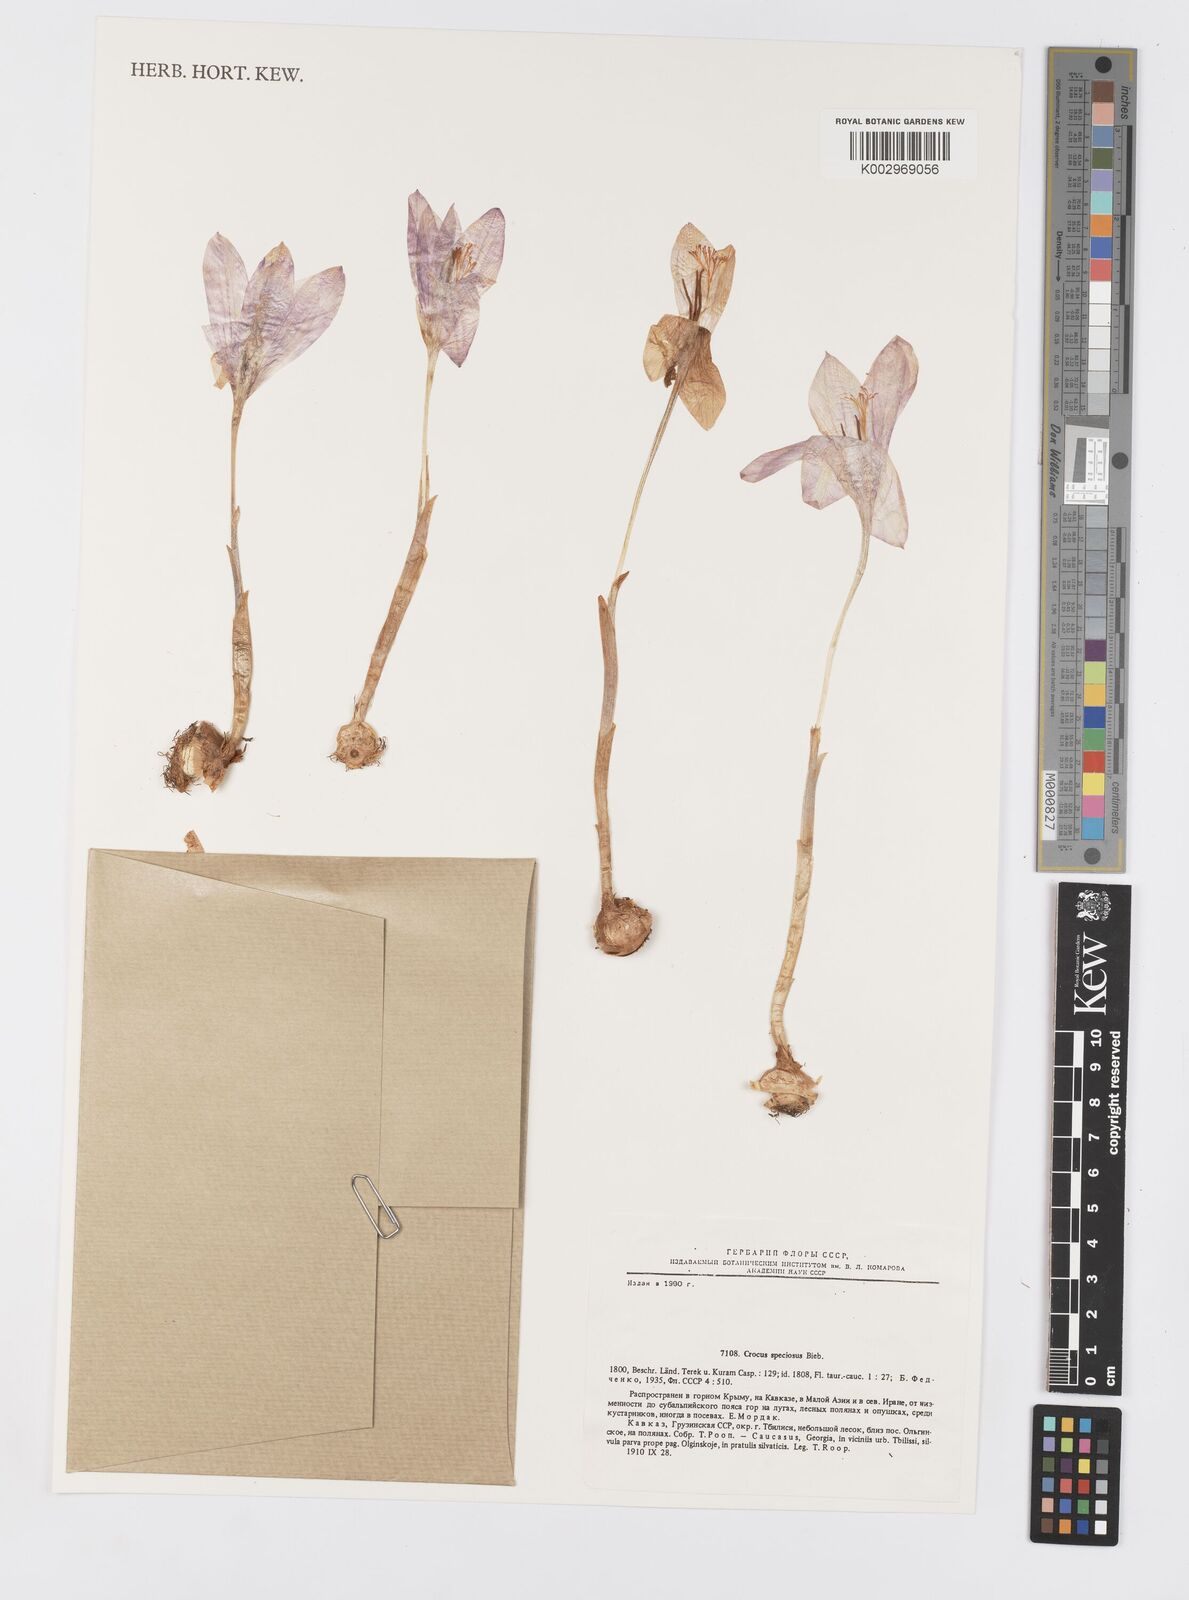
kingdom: Plantae
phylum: Tracheophyta
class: Liliopsida
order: Asparagales
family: Iridaceae
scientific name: Iridaceae
